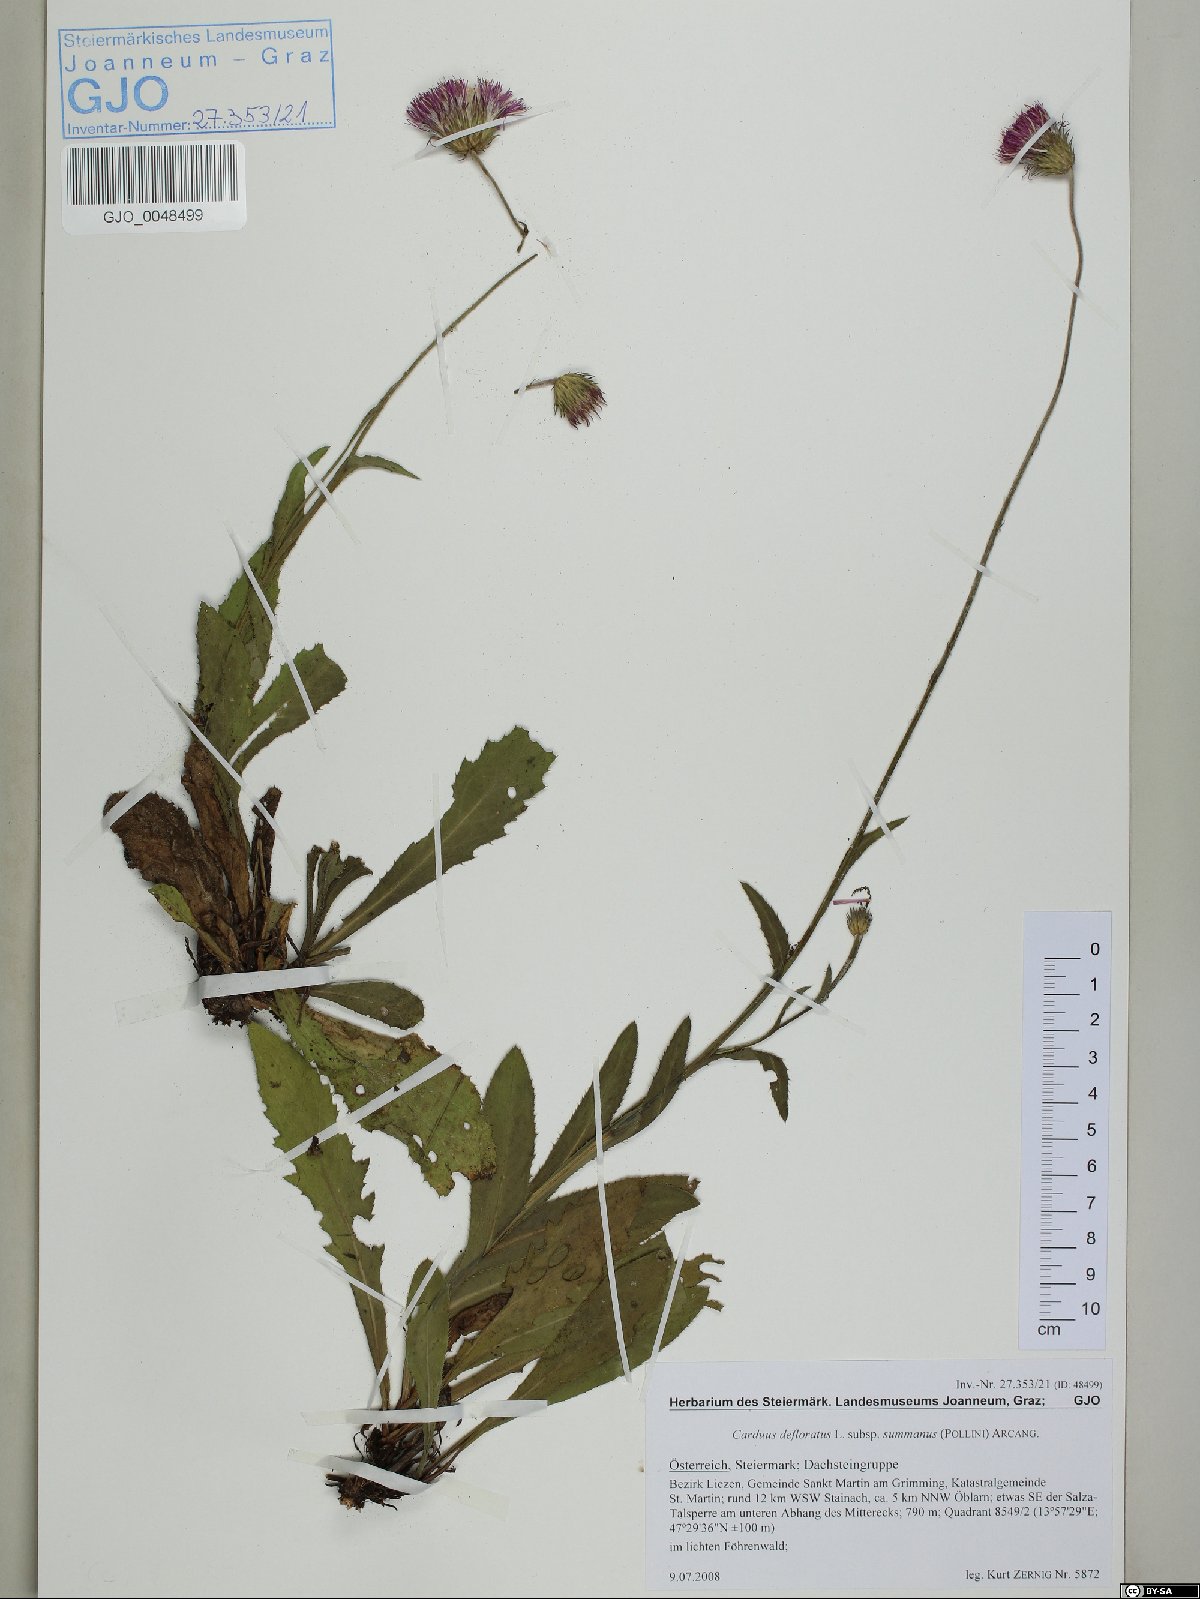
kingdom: Plantae
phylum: Tracheophyta
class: Magnoliopsida
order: Asterales
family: Asteraceae
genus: Carduus
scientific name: Carduus defloratus
